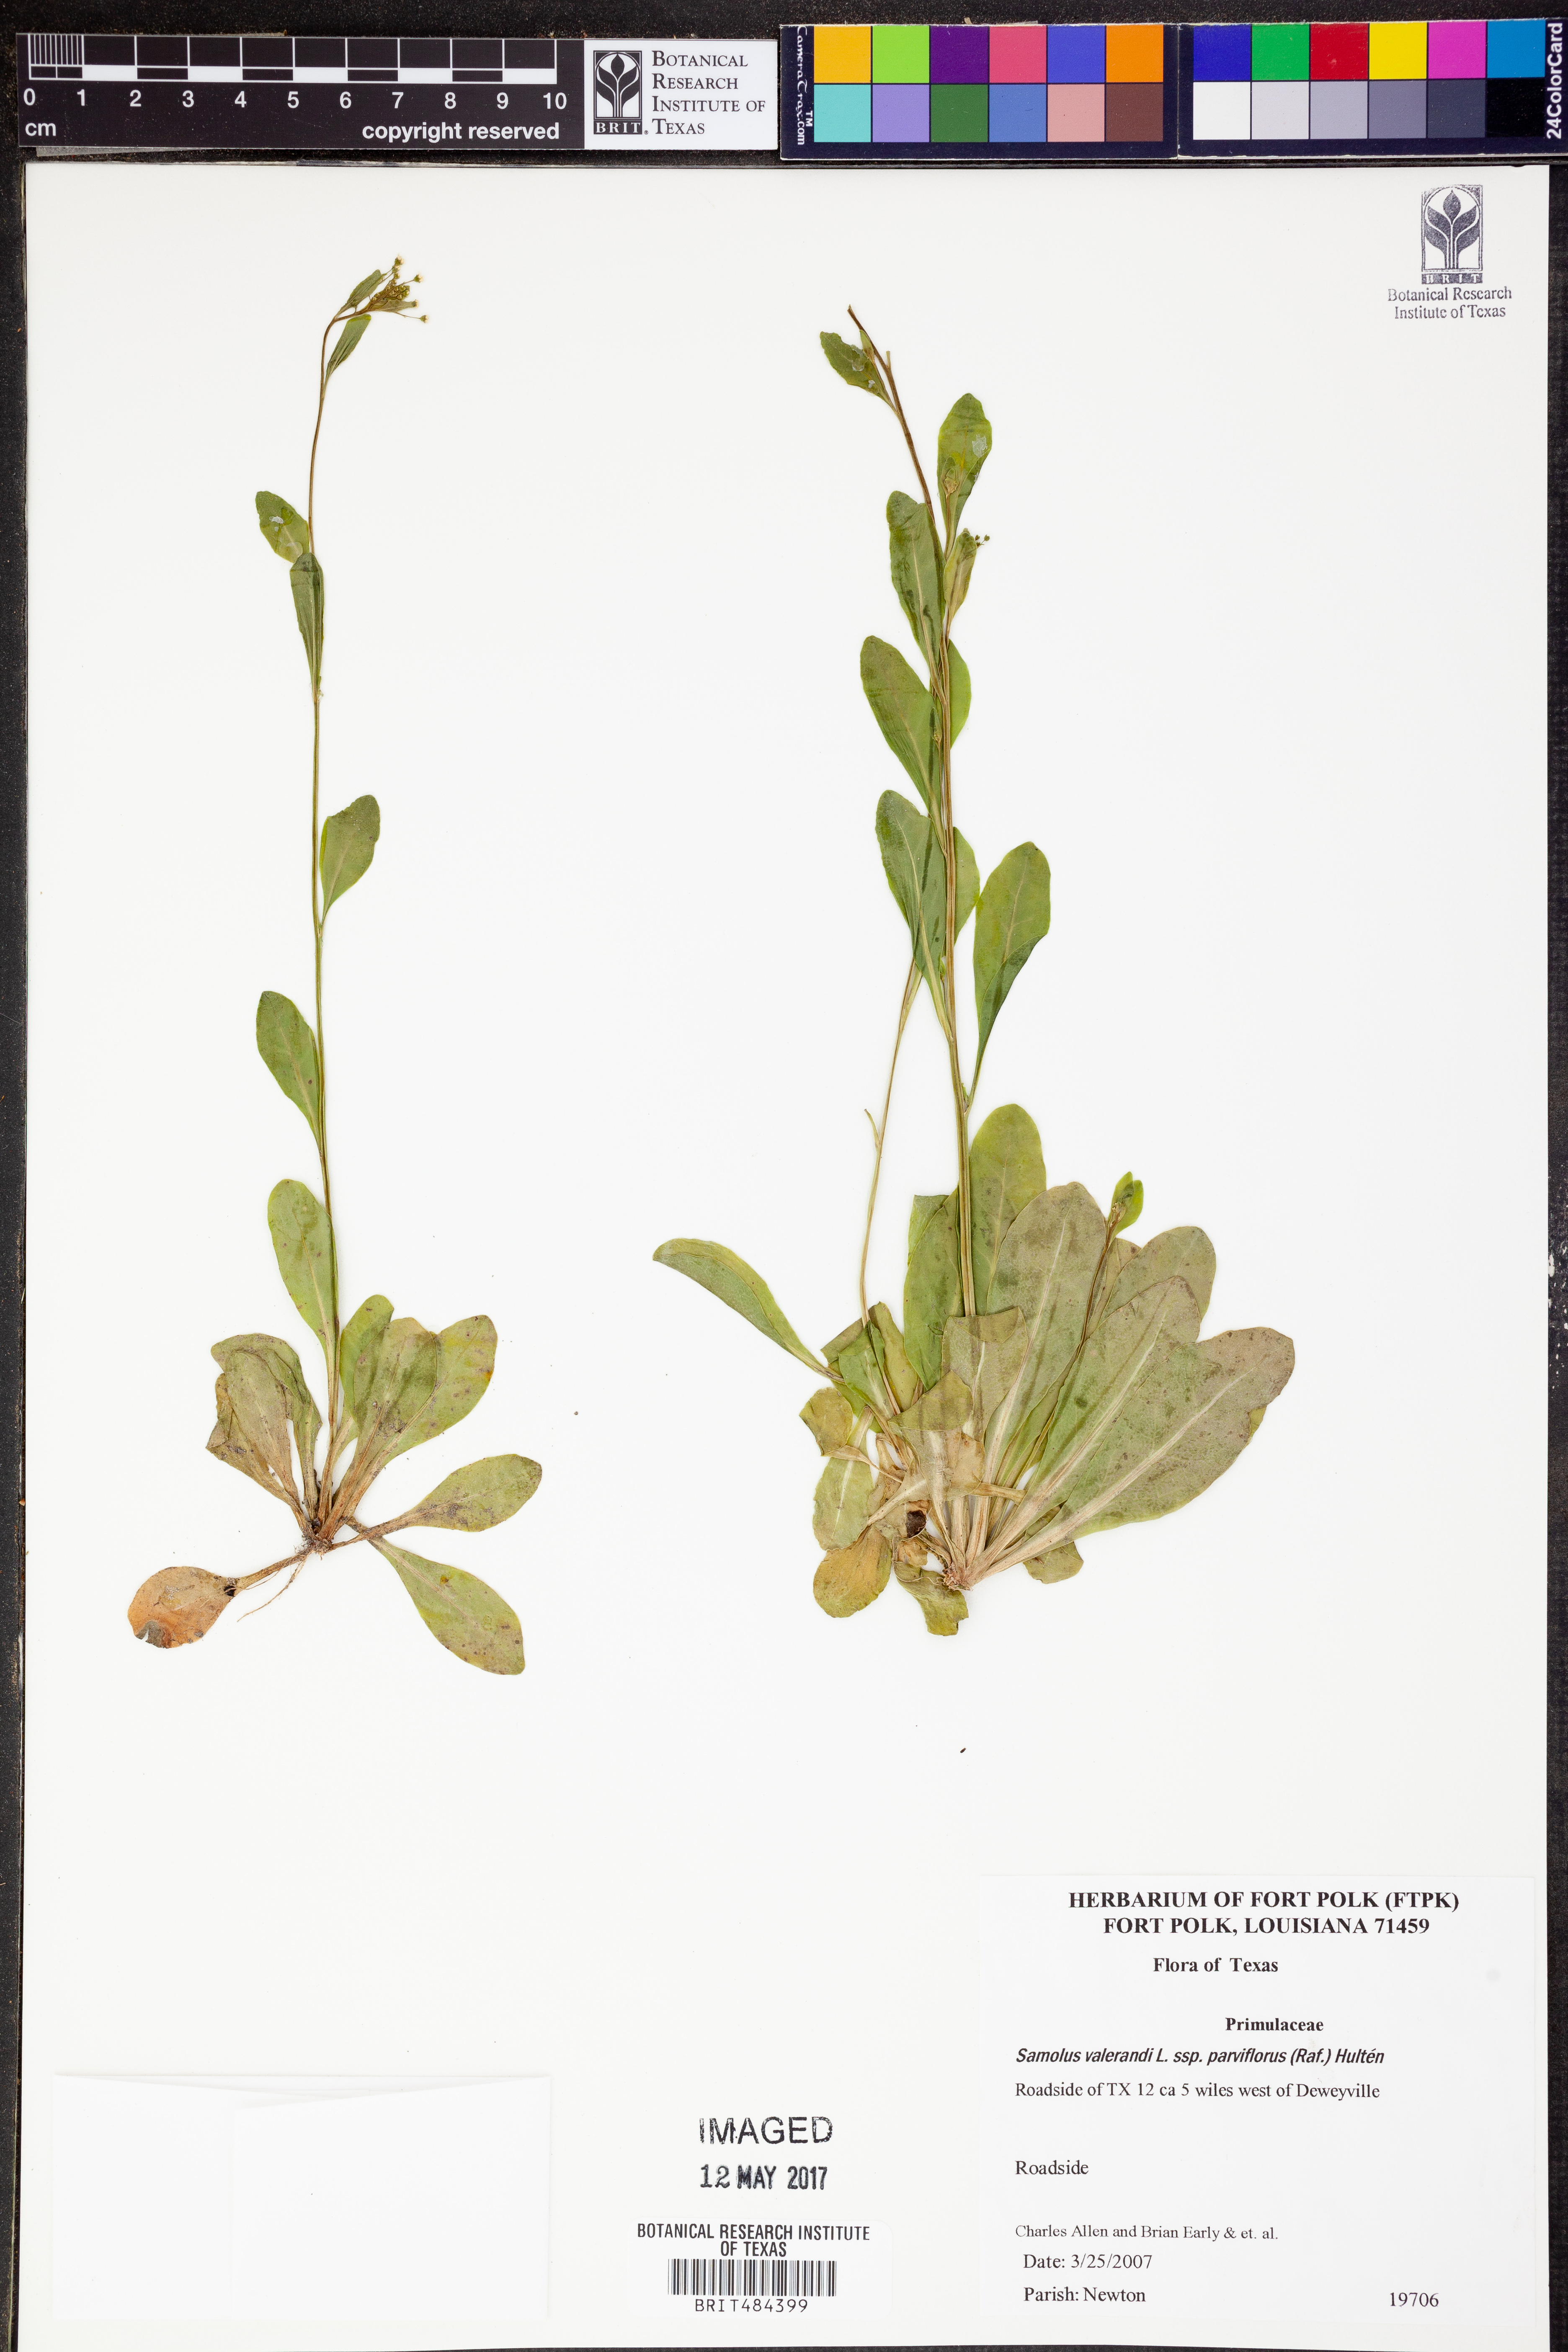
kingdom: Plantae
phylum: Tracheophyta
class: Magnoliopsida
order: Ericales
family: Primulaceae
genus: Samolus
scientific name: Samolus parviflorus
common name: False water pimpernel
